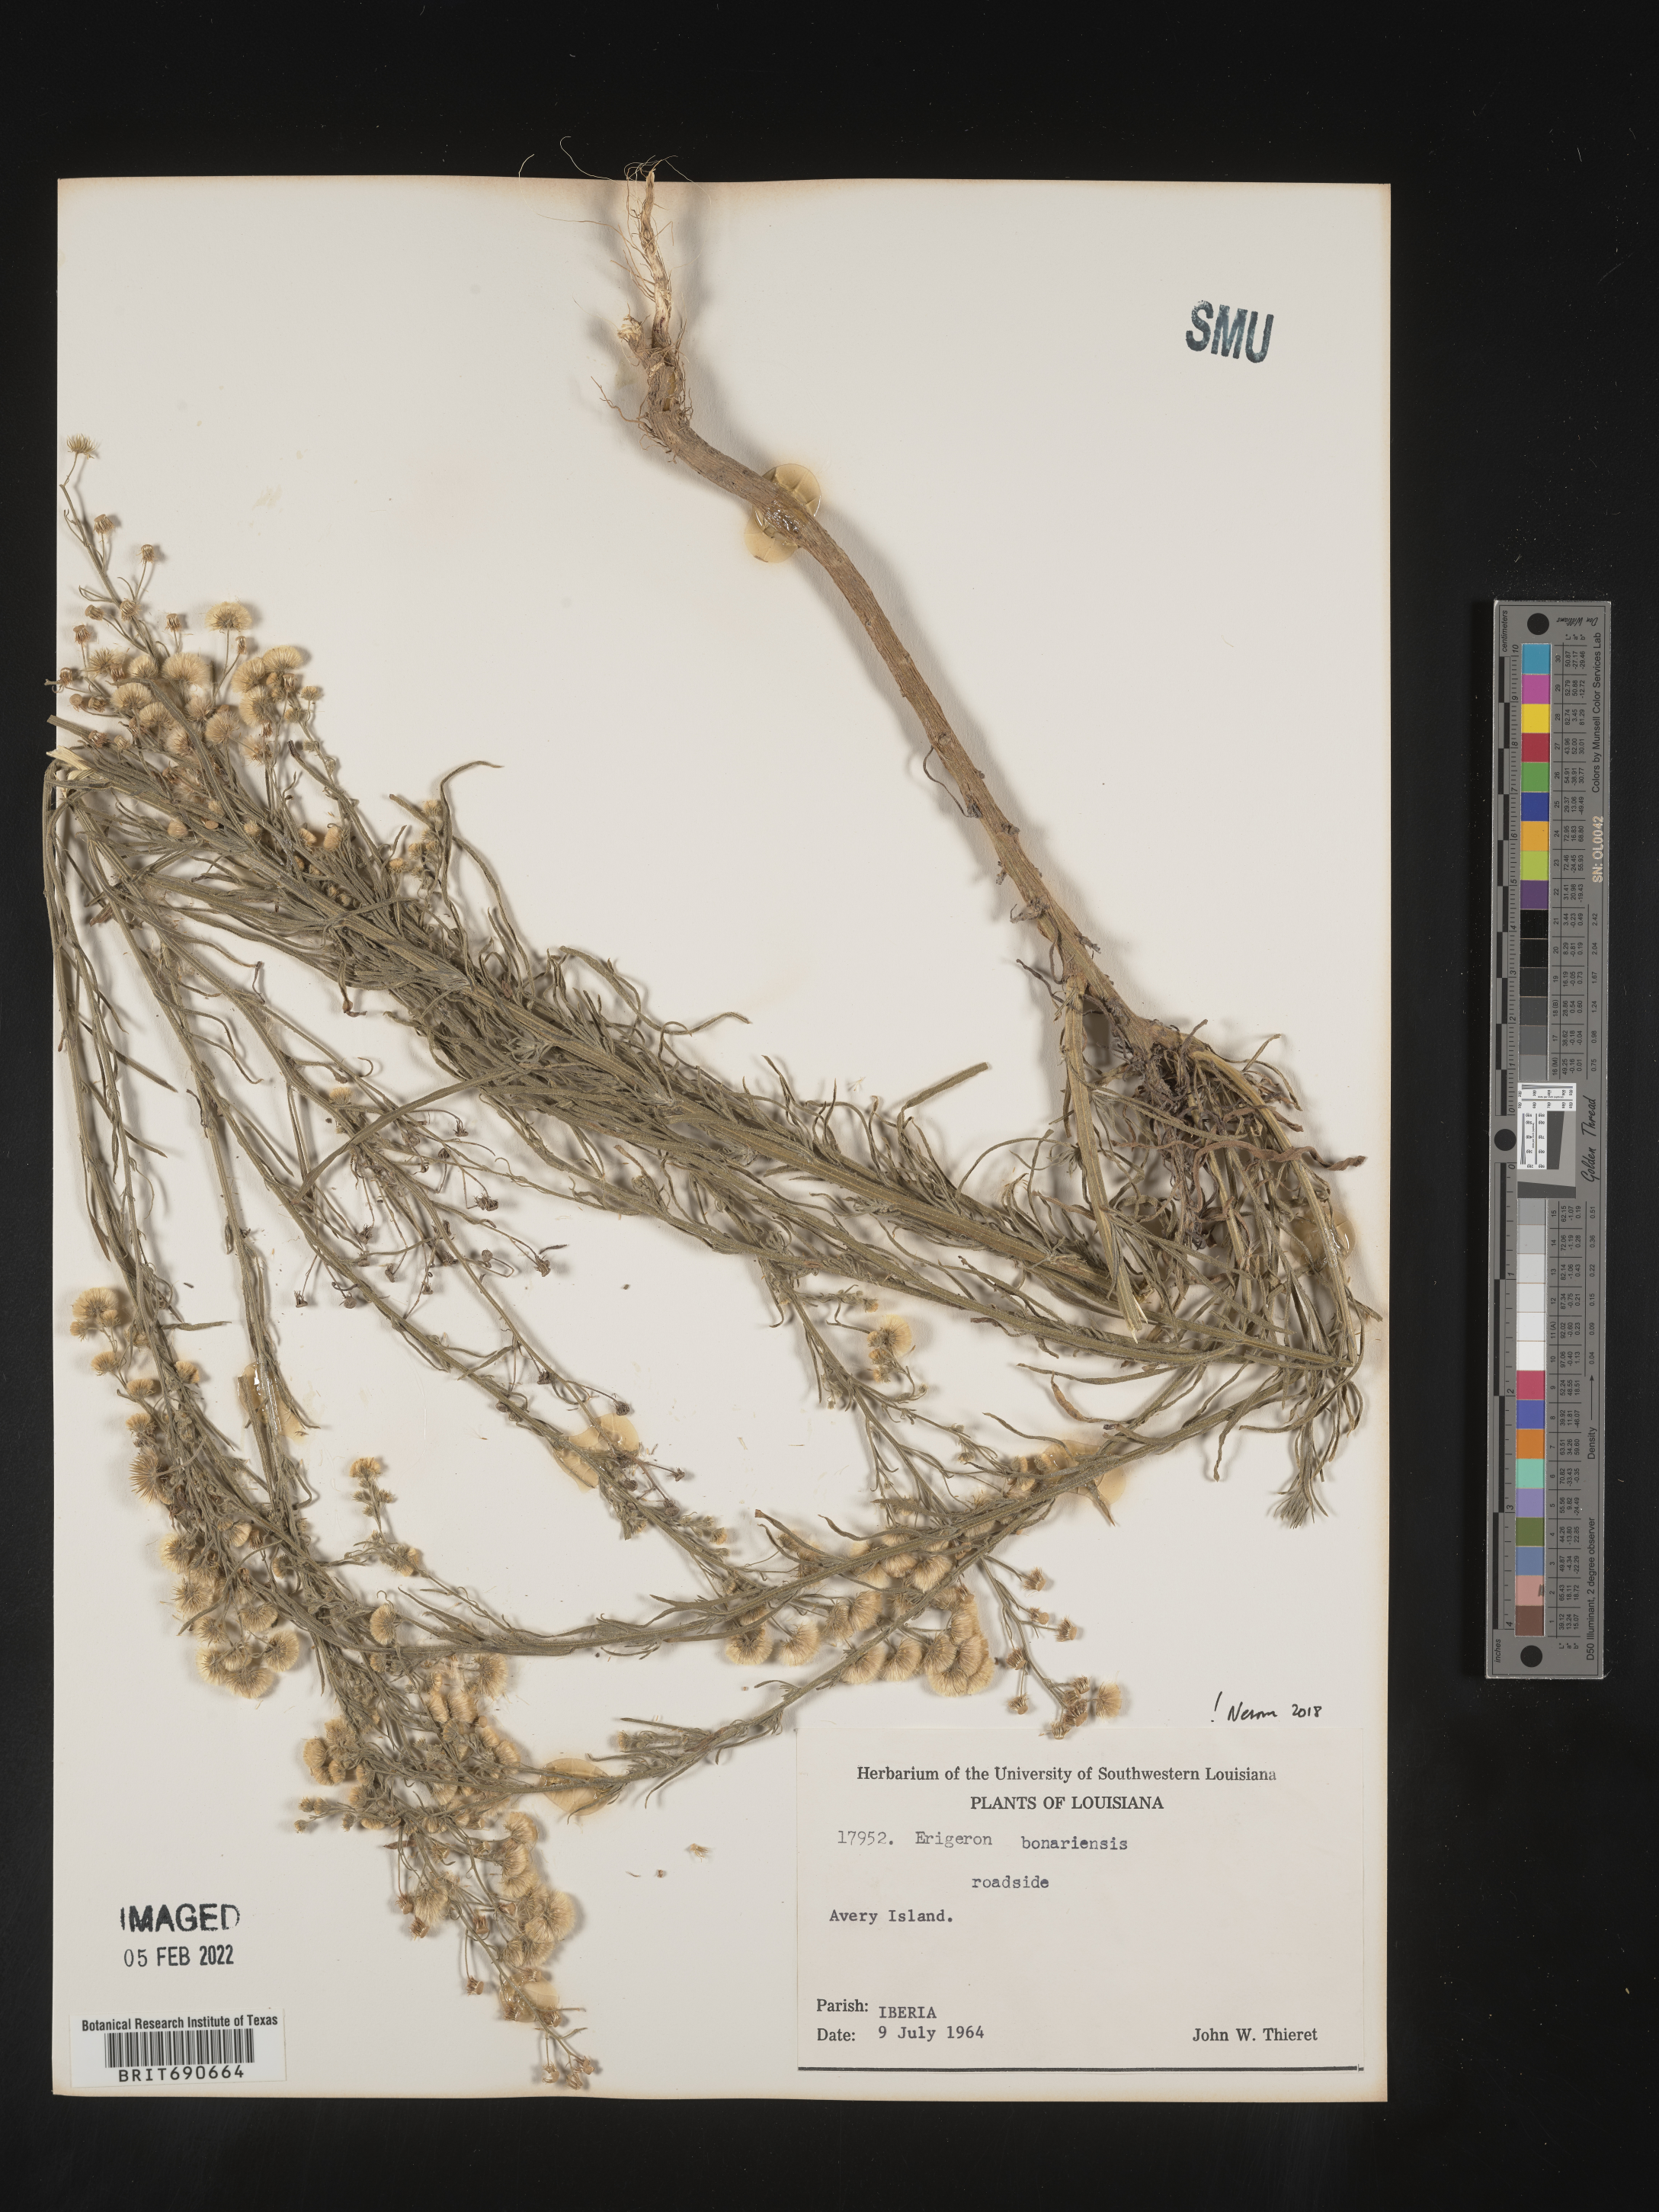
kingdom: Plantae
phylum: Tracheophyta
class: Magnoliopsida
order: Asterales
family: Asteraceae
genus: Erigeron
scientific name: Erigeron bonariensis
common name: Argentine fleabane
